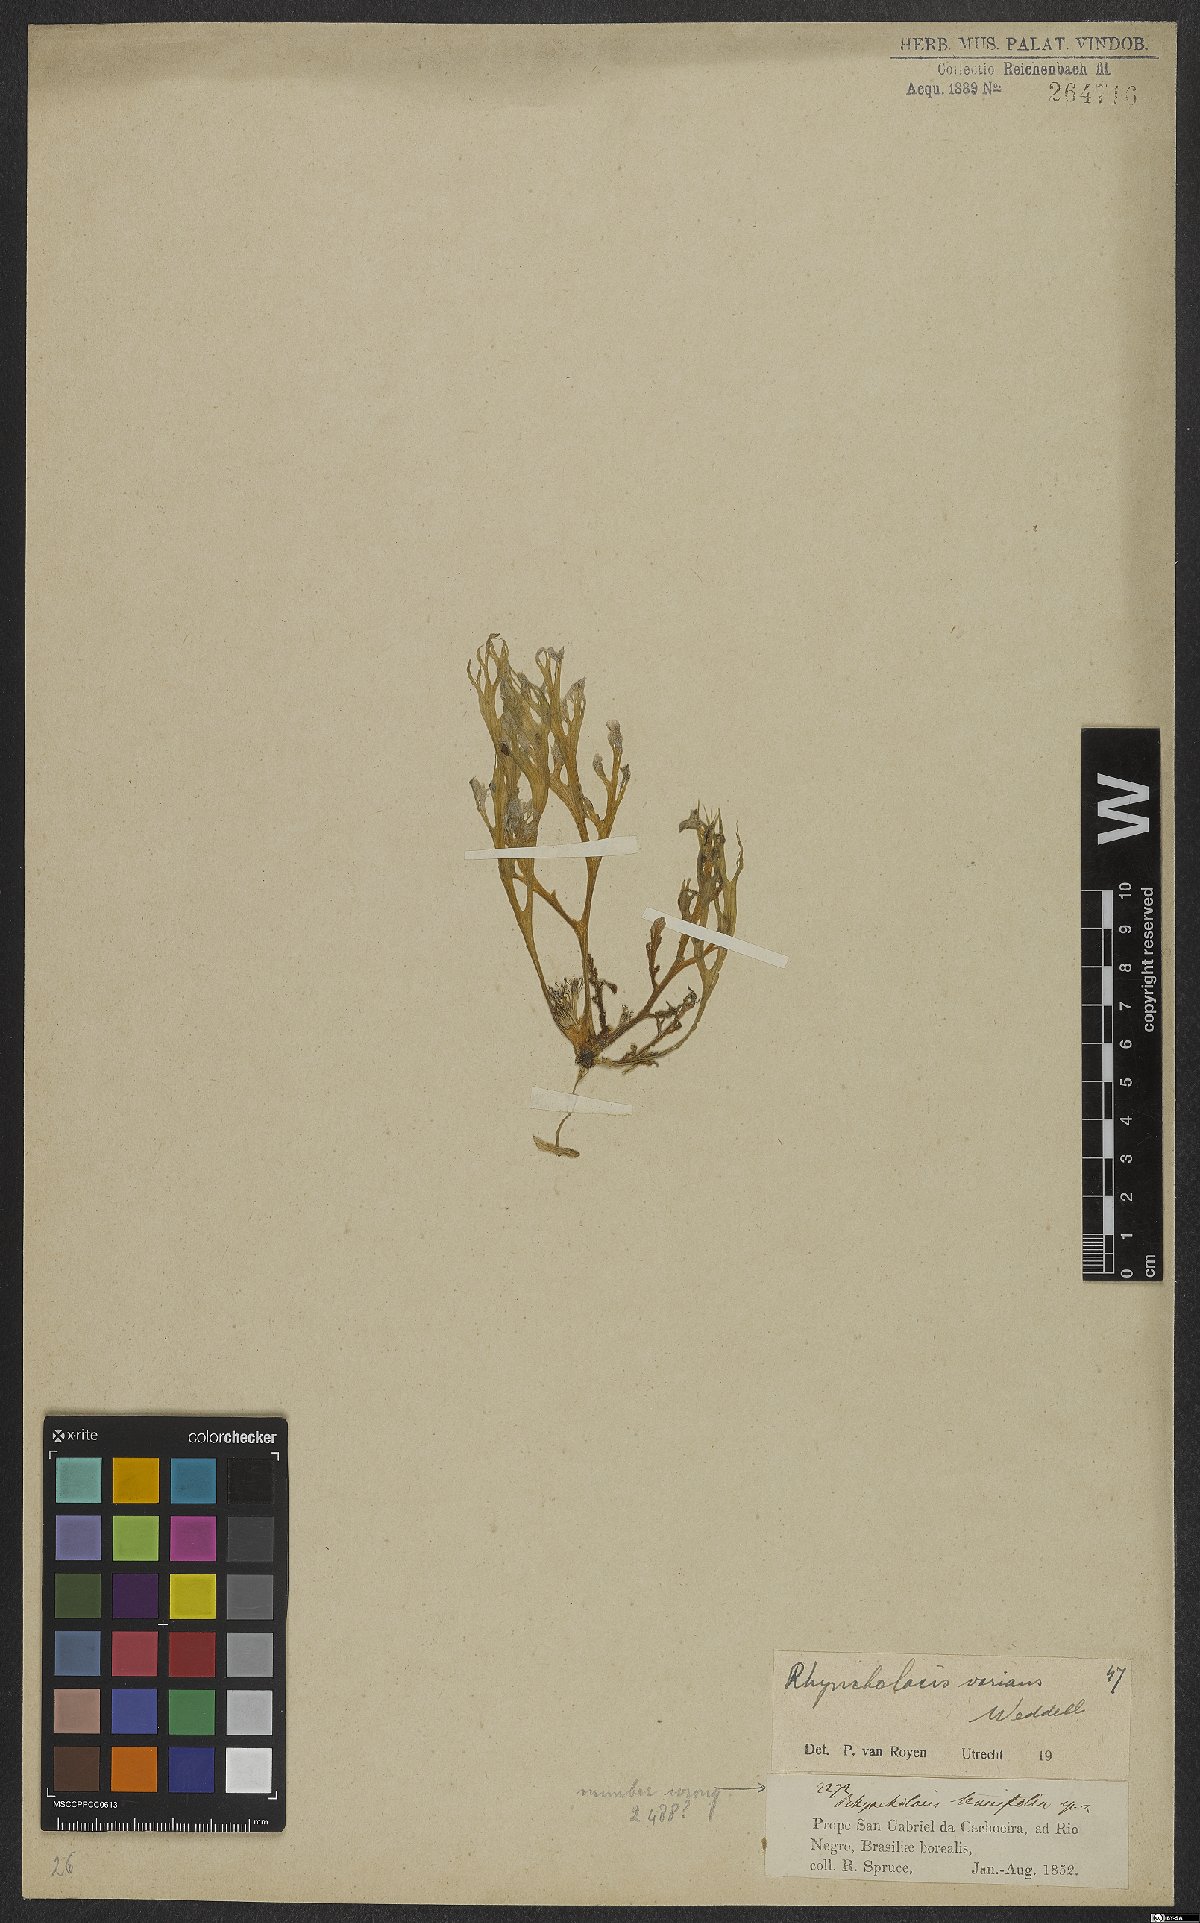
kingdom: Plantae
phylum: Tracheophyta
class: Magnoliopsida
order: Malpighiales
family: Podostemaceae
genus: Rhyncholacis
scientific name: Rhyncholacis varians
